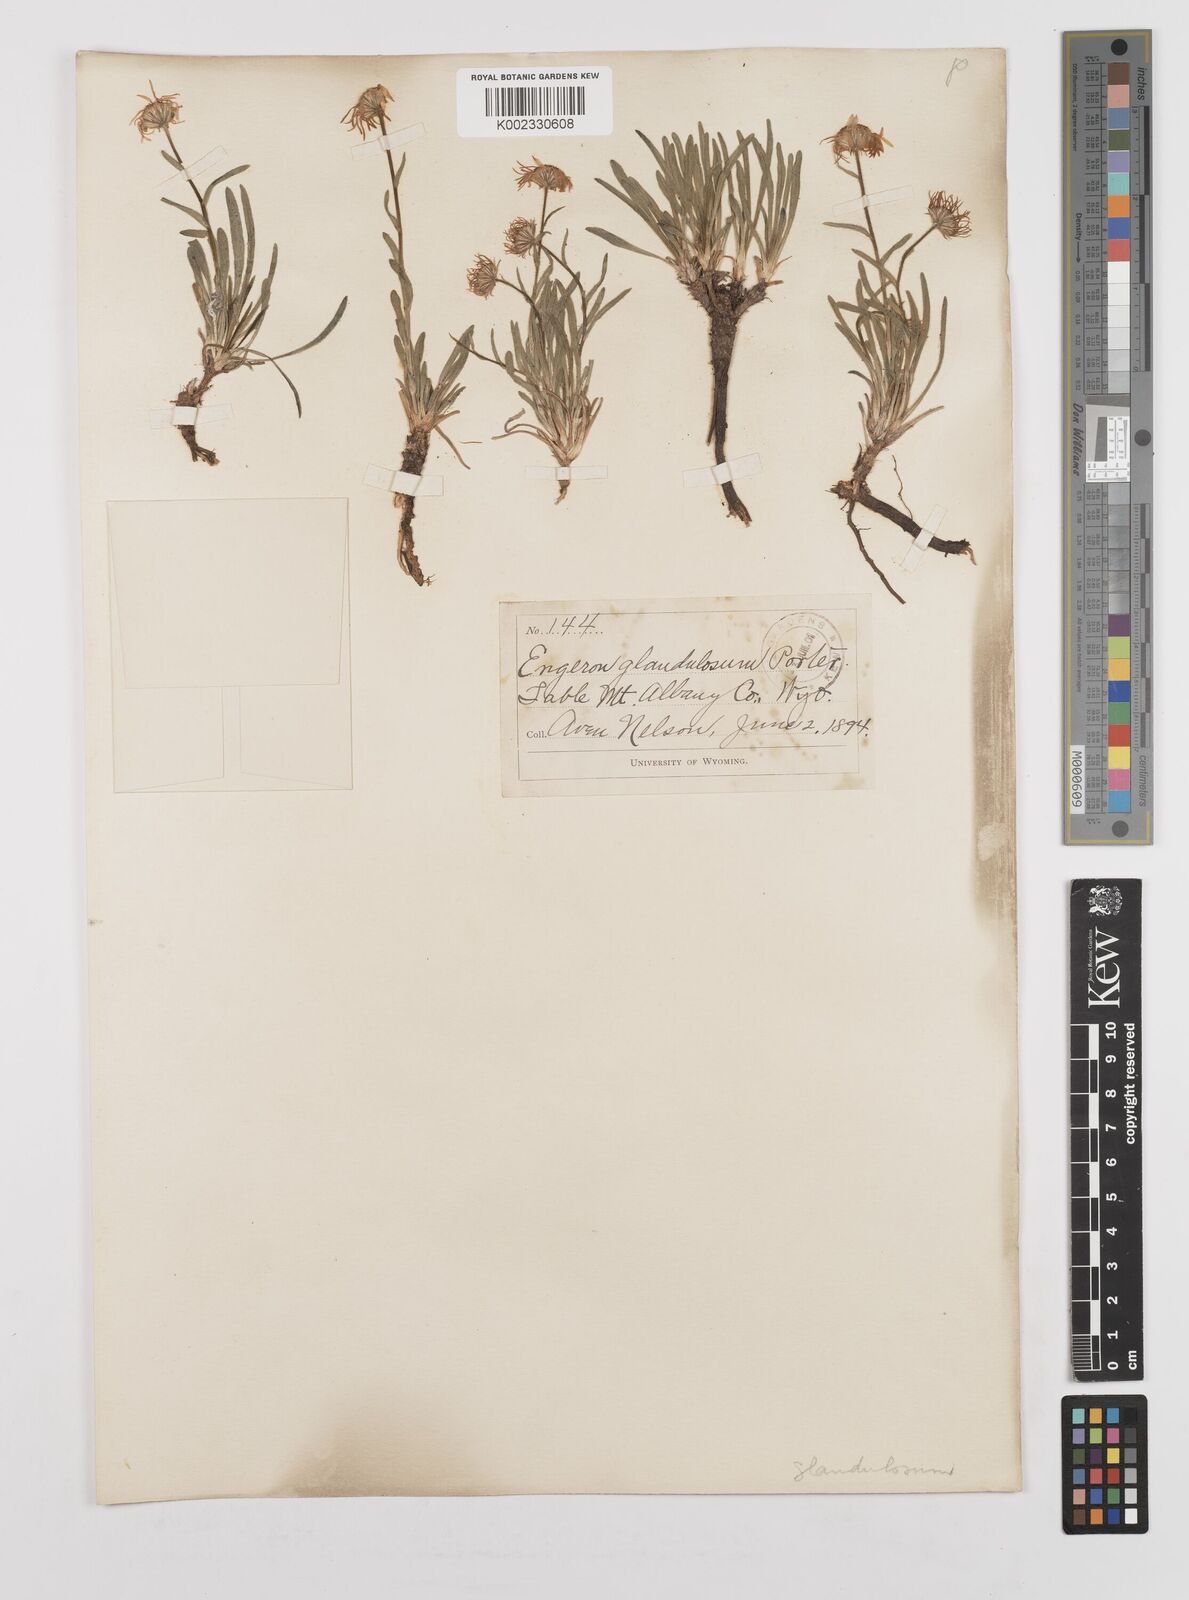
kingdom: Plantae
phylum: Tracheophyta
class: Magnoliopsida
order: Asterales
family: Asteraceae
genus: Erigeron
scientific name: Erigeron vetensis
